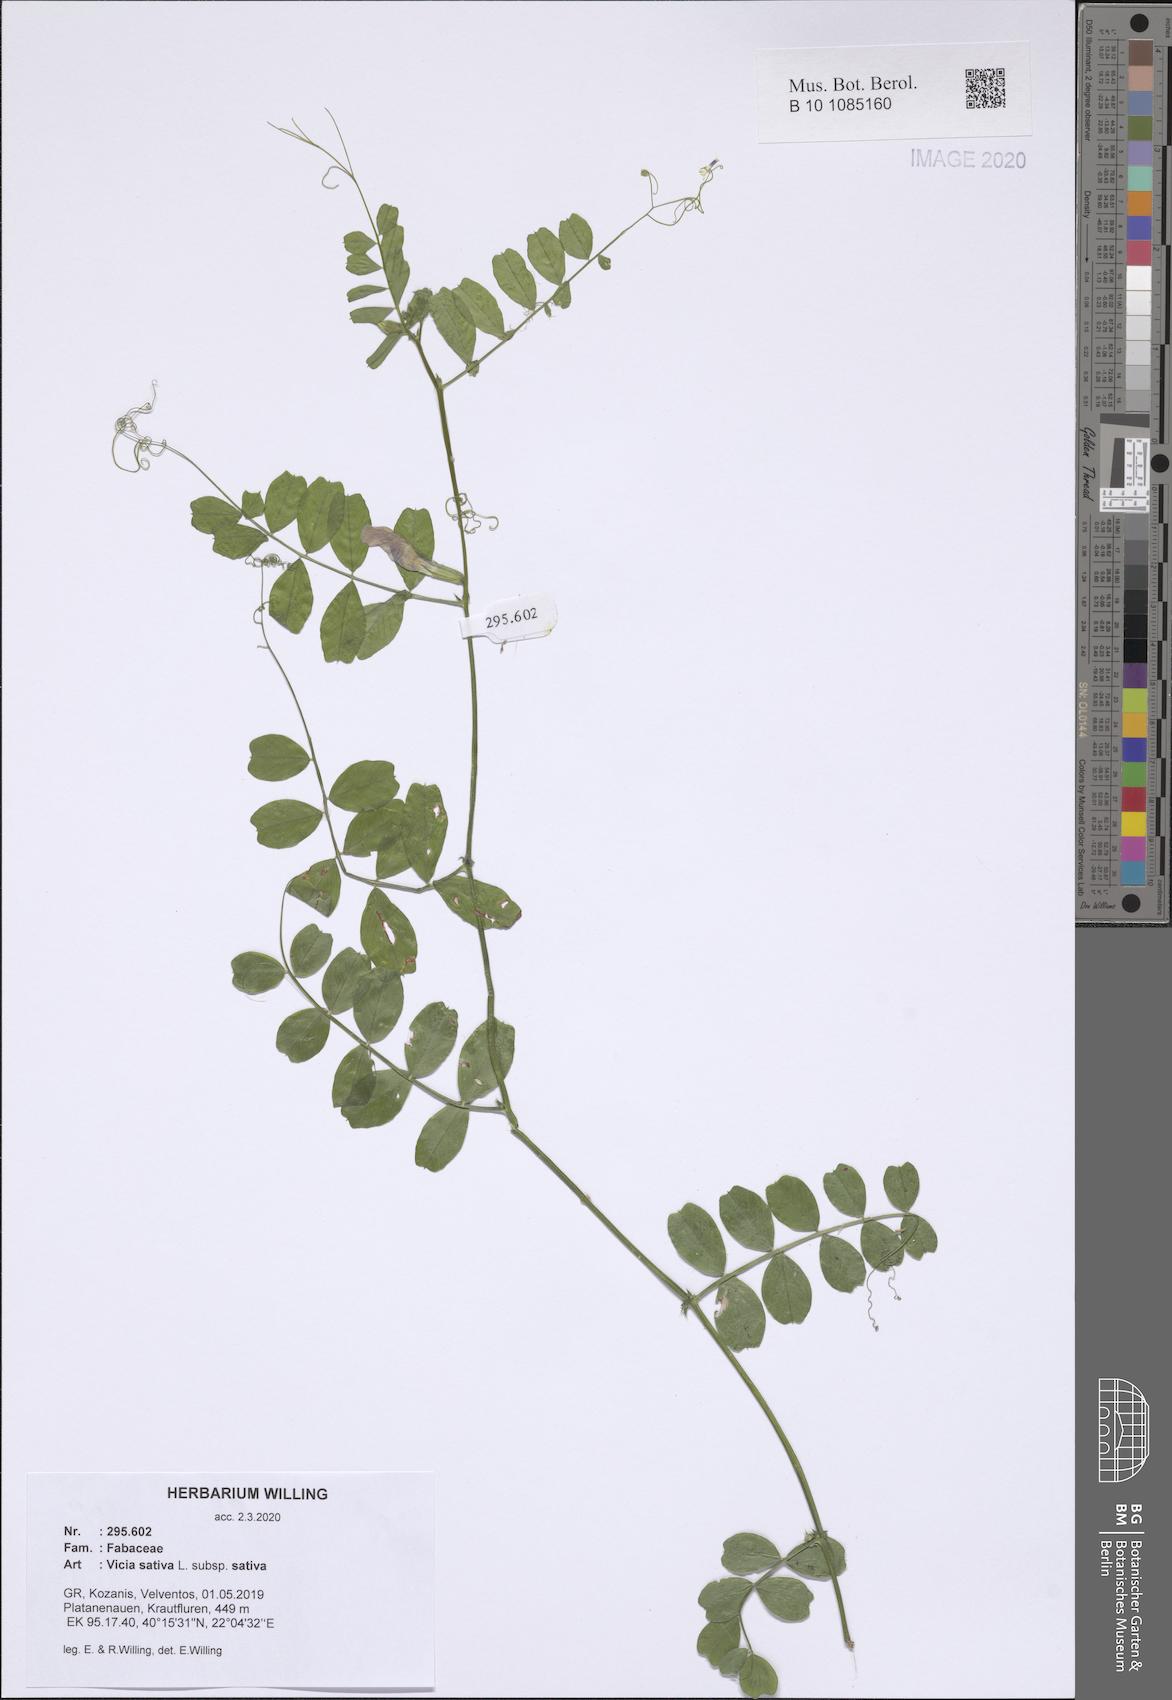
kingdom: Plantae
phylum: Tracheophyta
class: Magnoliopsida
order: Fabales
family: Fabaceae
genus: Vicia
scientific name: Vicia sativa
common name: Garden vetch
